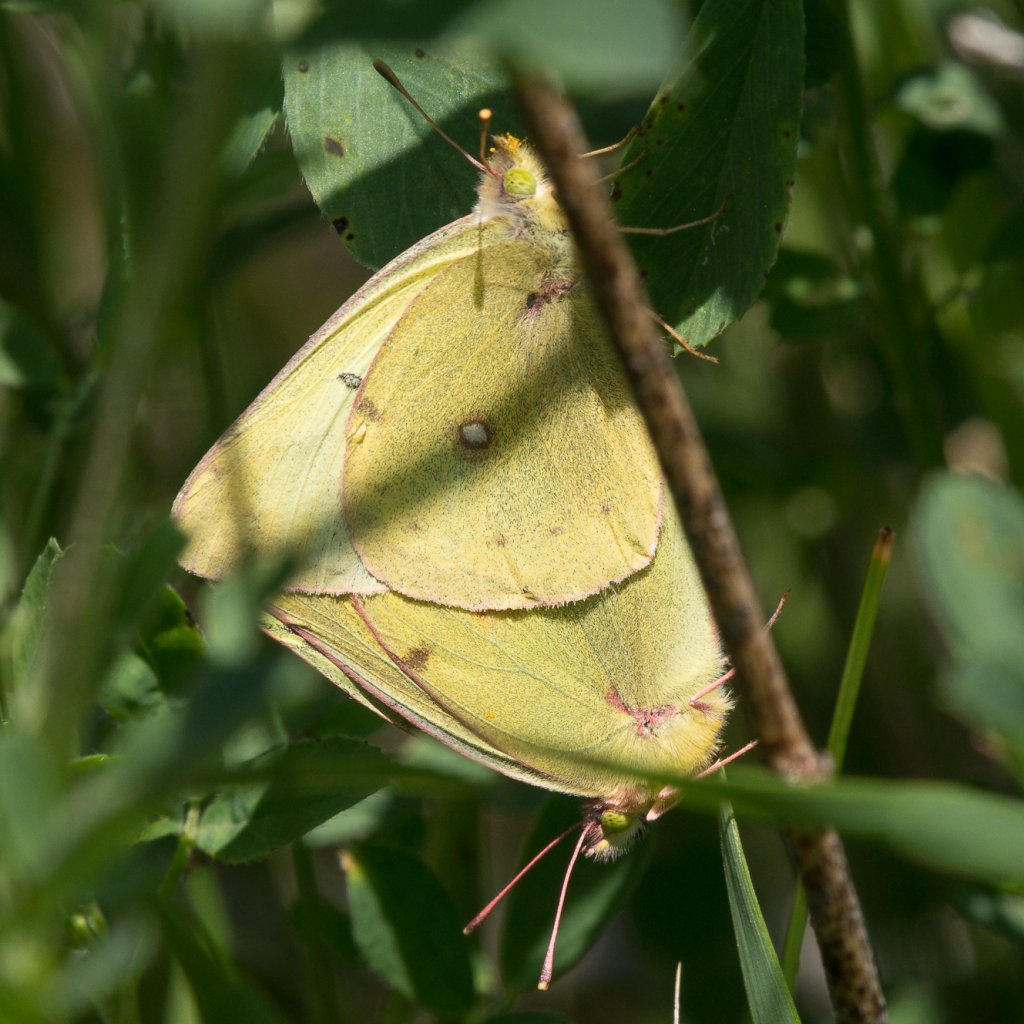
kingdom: Animalia
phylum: Arthropoda
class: Insecta
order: Lepidoptera
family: Pieridae
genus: Colias
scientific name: Colias philodice
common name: Clouded Sulphur
